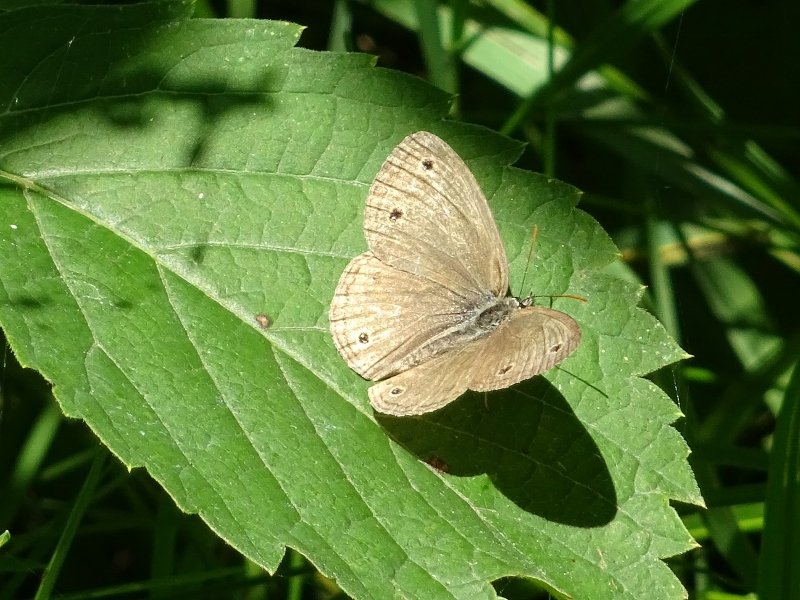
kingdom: Animalia
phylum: Arthropoda
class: Insecta
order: Lepidoptera
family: Nymphalidae
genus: Euptychia
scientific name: Euptychia cymela
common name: Little Wood Satyr
